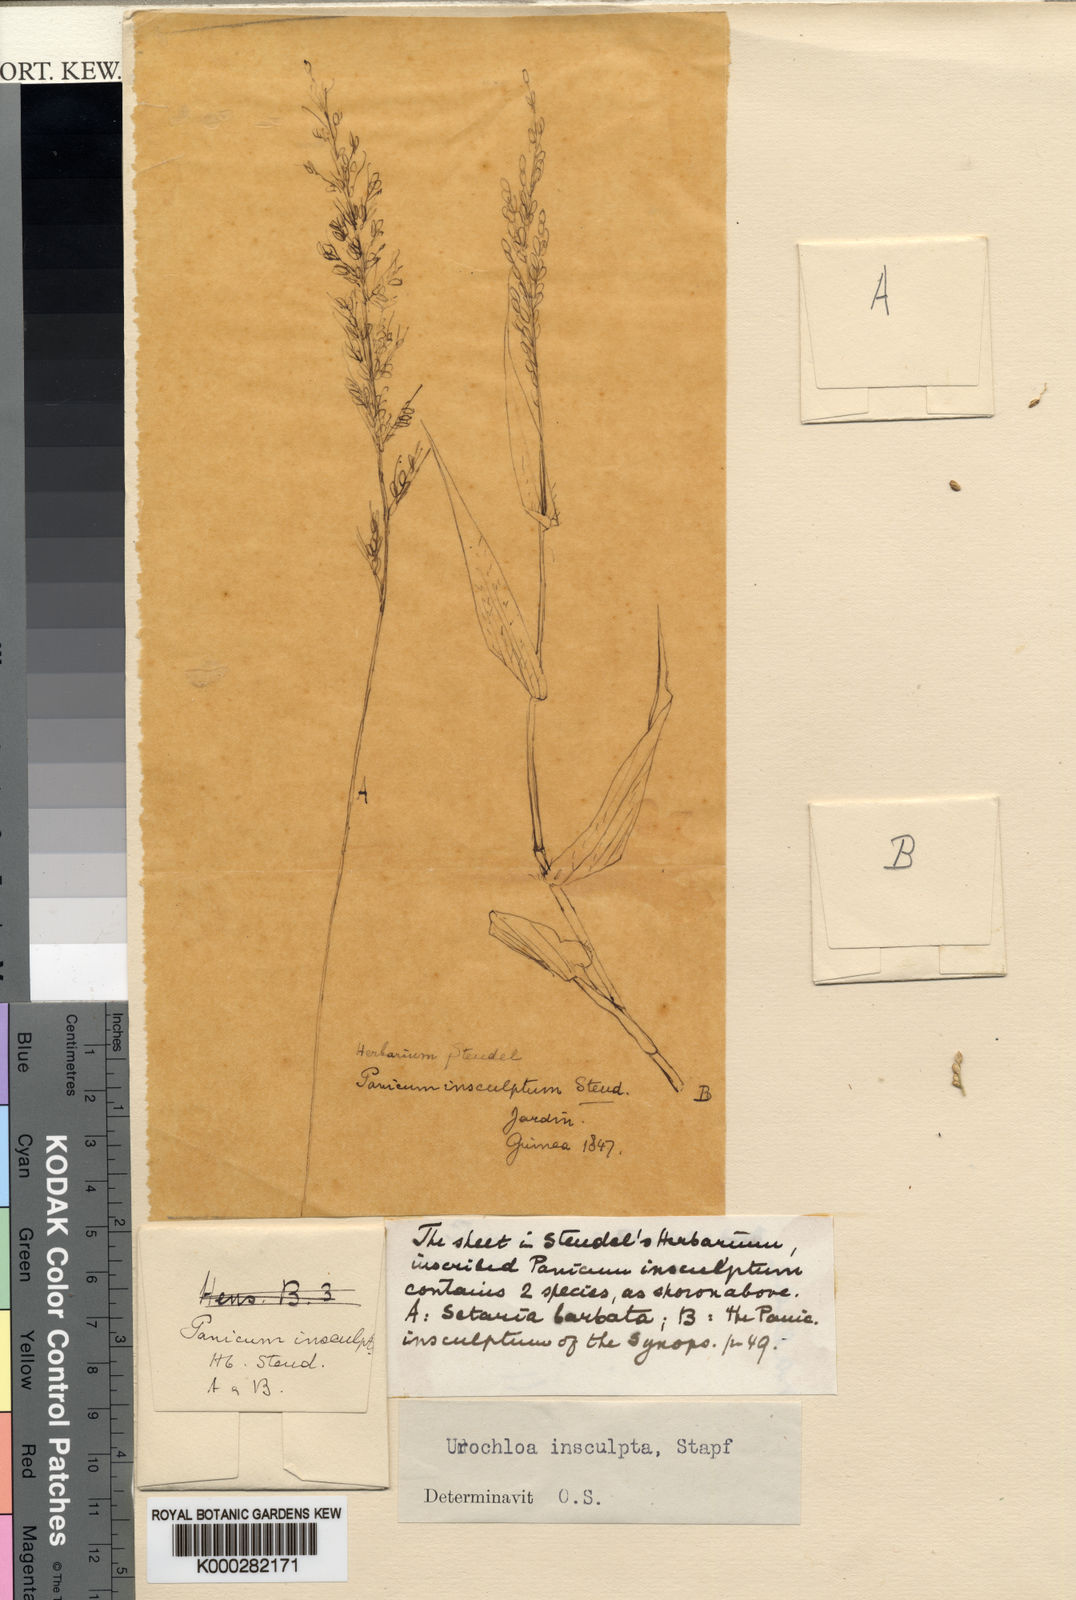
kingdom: Plantae
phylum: Tracheophyta
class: Liliopsida
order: Poales
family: Poaceae
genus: Urochloa
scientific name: Urochloa lata
